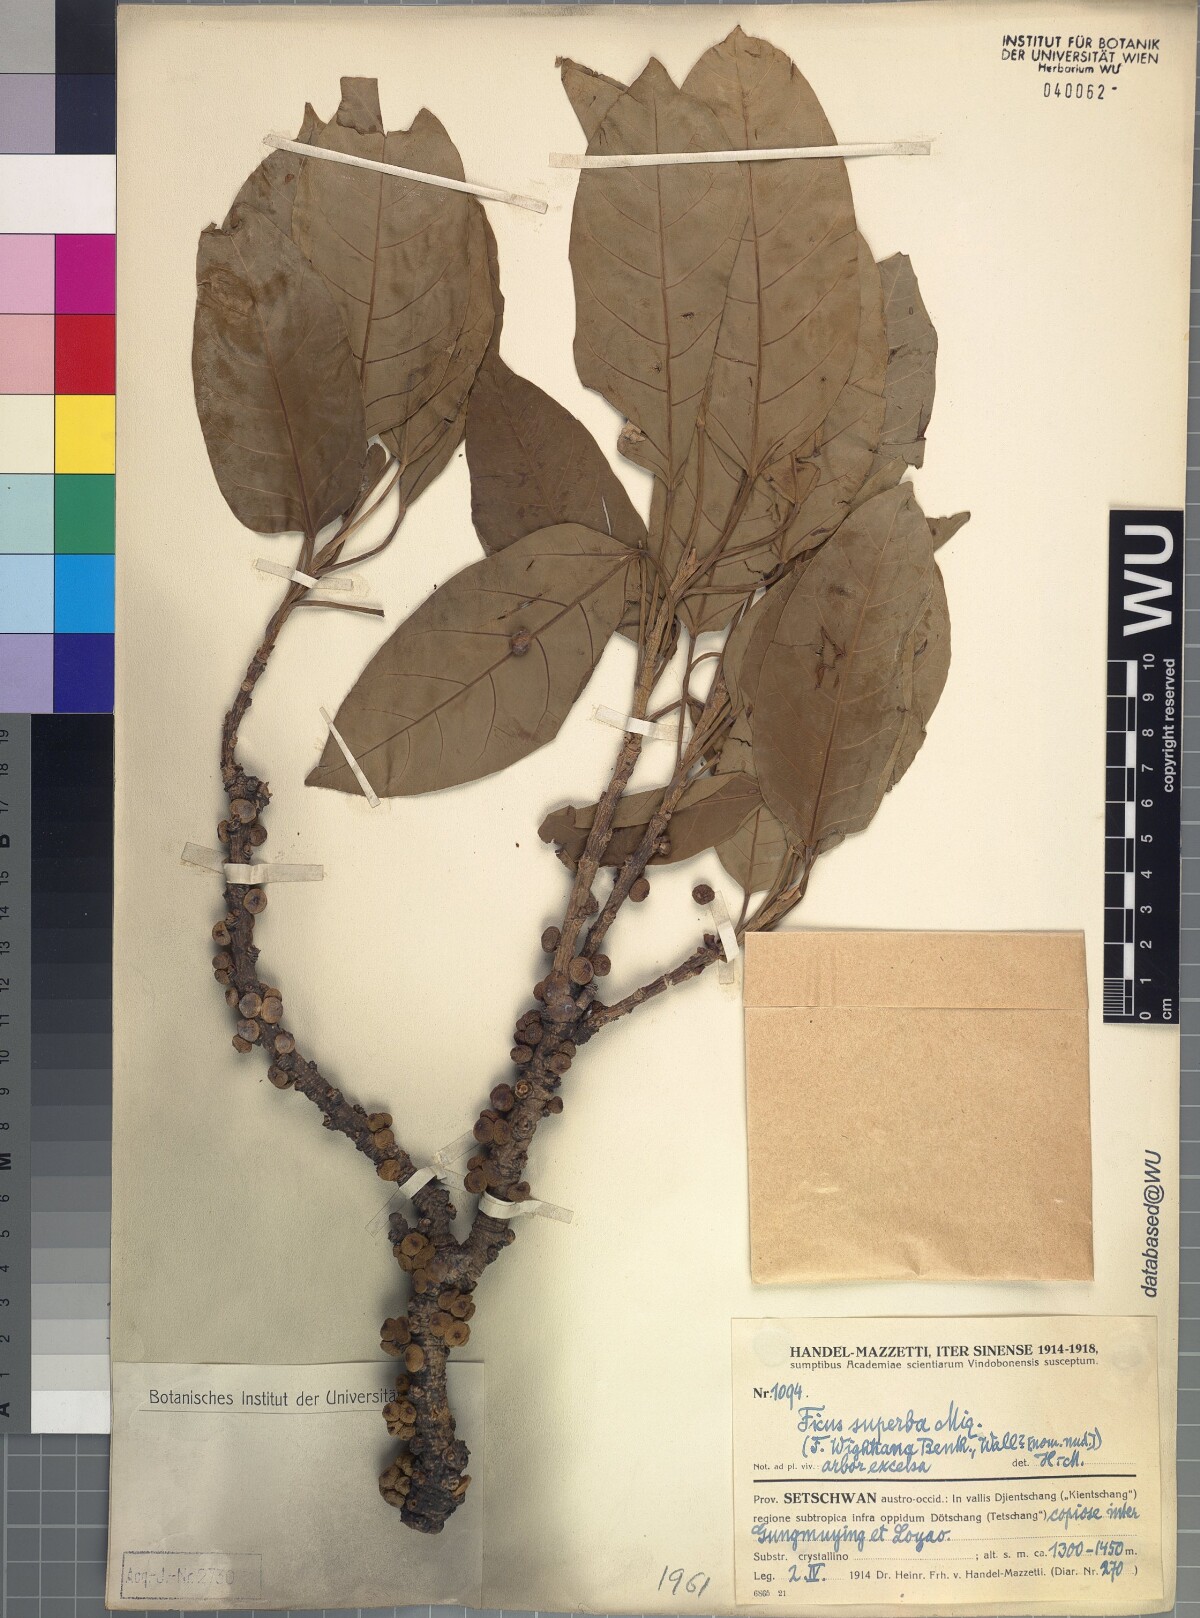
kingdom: Plantae
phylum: Tracheophyta
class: Magnoliopsida
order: Rosales
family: Moraceae
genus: Ficus
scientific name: Ficus superba
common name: Cedar fig
